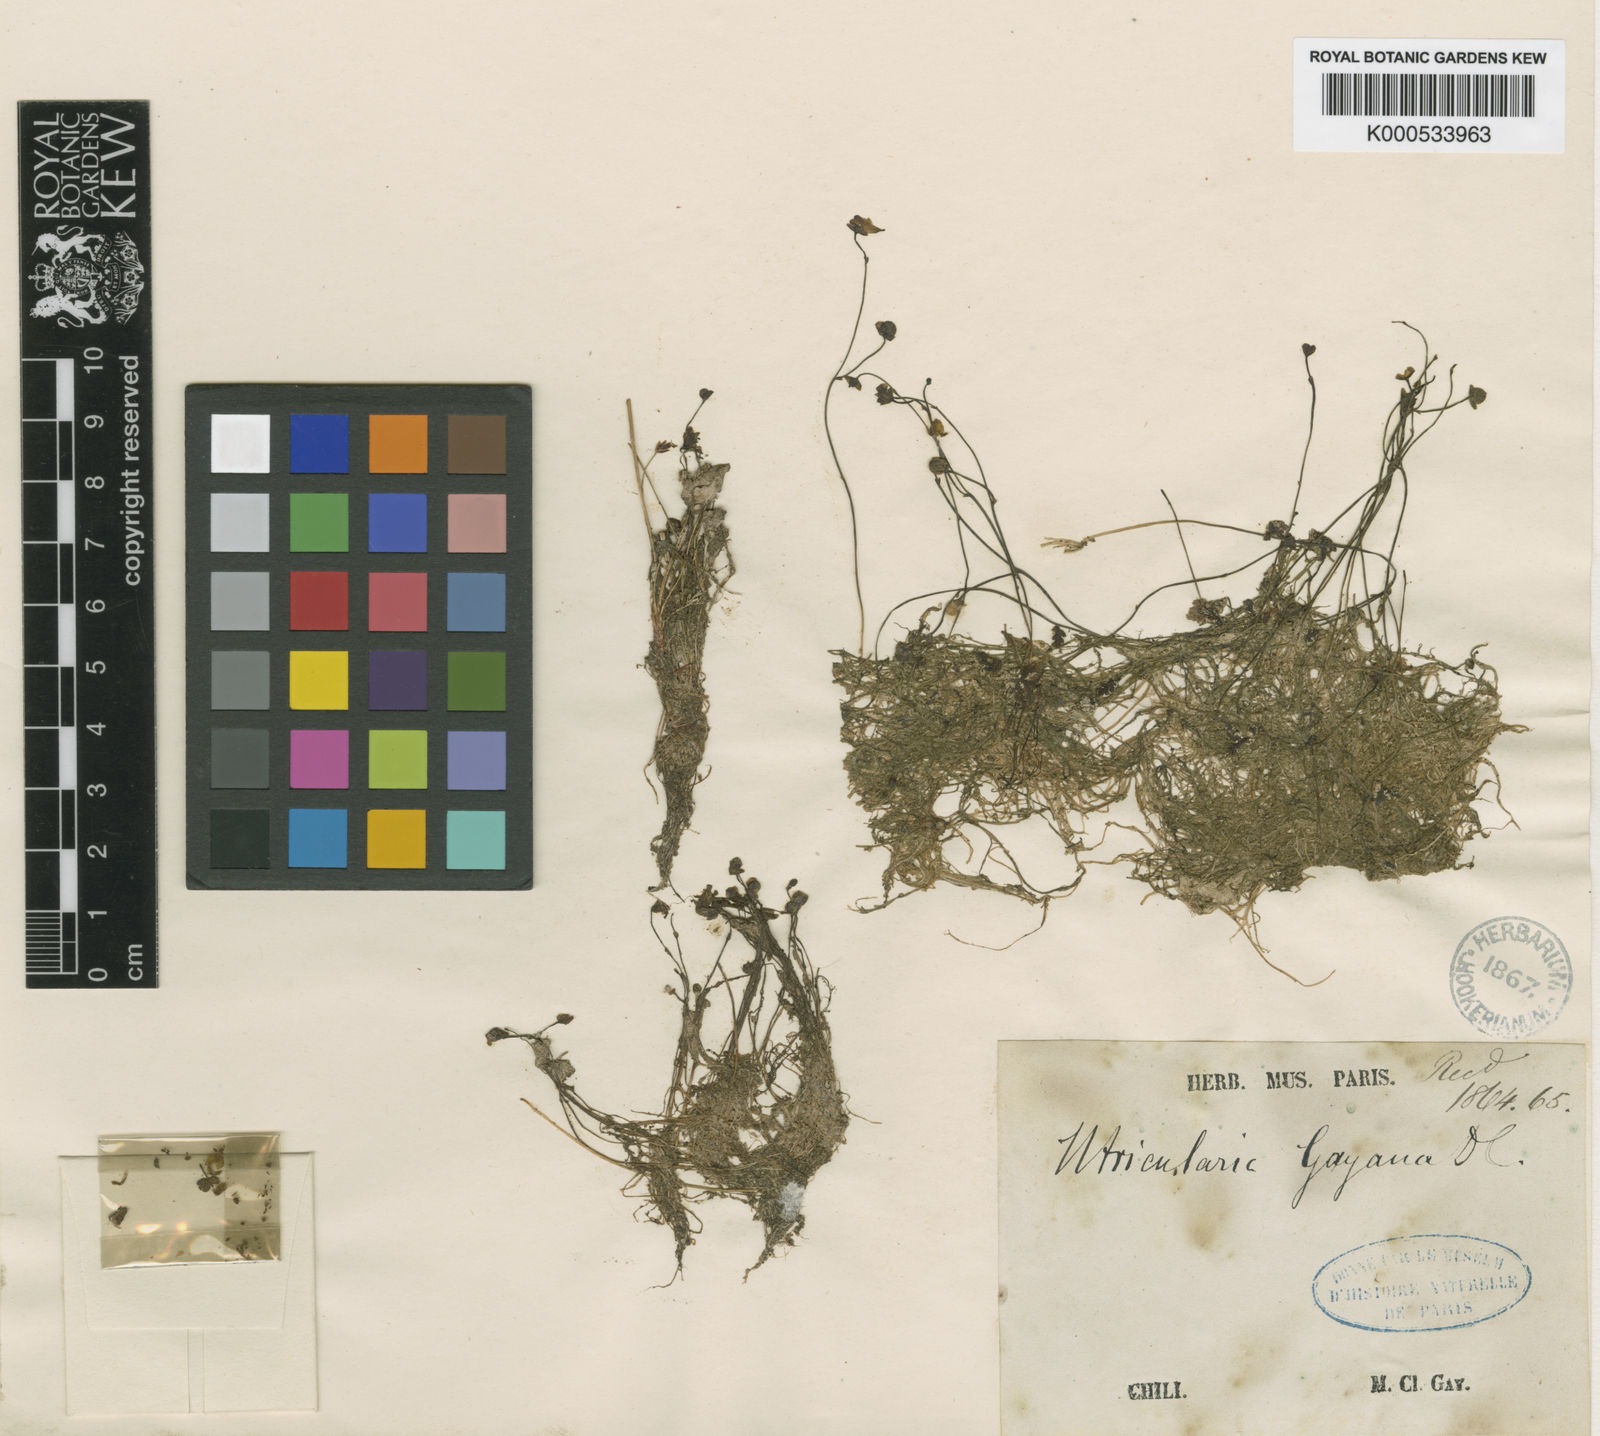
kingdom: Plantae
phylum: Tracheophyta
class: Magnoliopsida
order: Lamiales
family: Lentibulariaceae
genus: Utricularia
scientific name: Utricularia gibba
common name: Humped bladderwort
